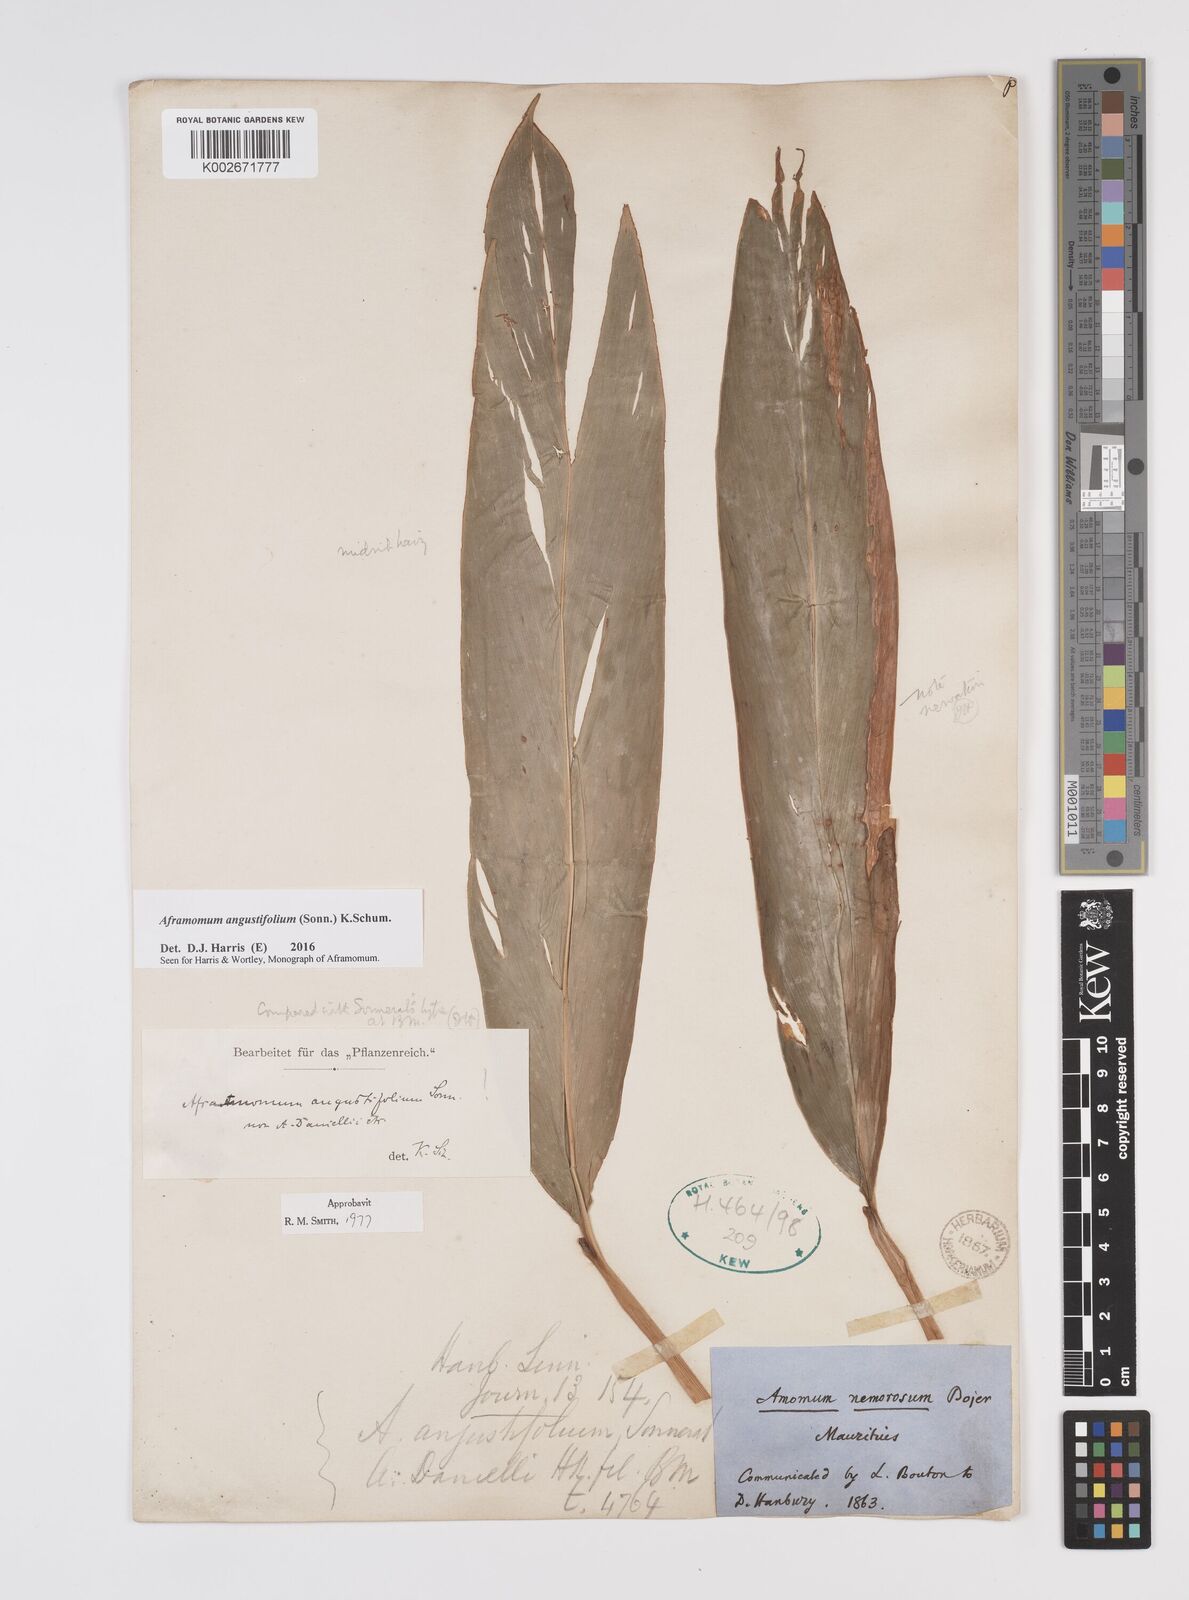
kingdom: Plantae
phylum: Tracheophyta
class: Liliopsida
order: Zingiberales
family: Zingiberaceae
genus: Aframomum
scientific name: Aframomum angustifolium
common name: Guinea grains
